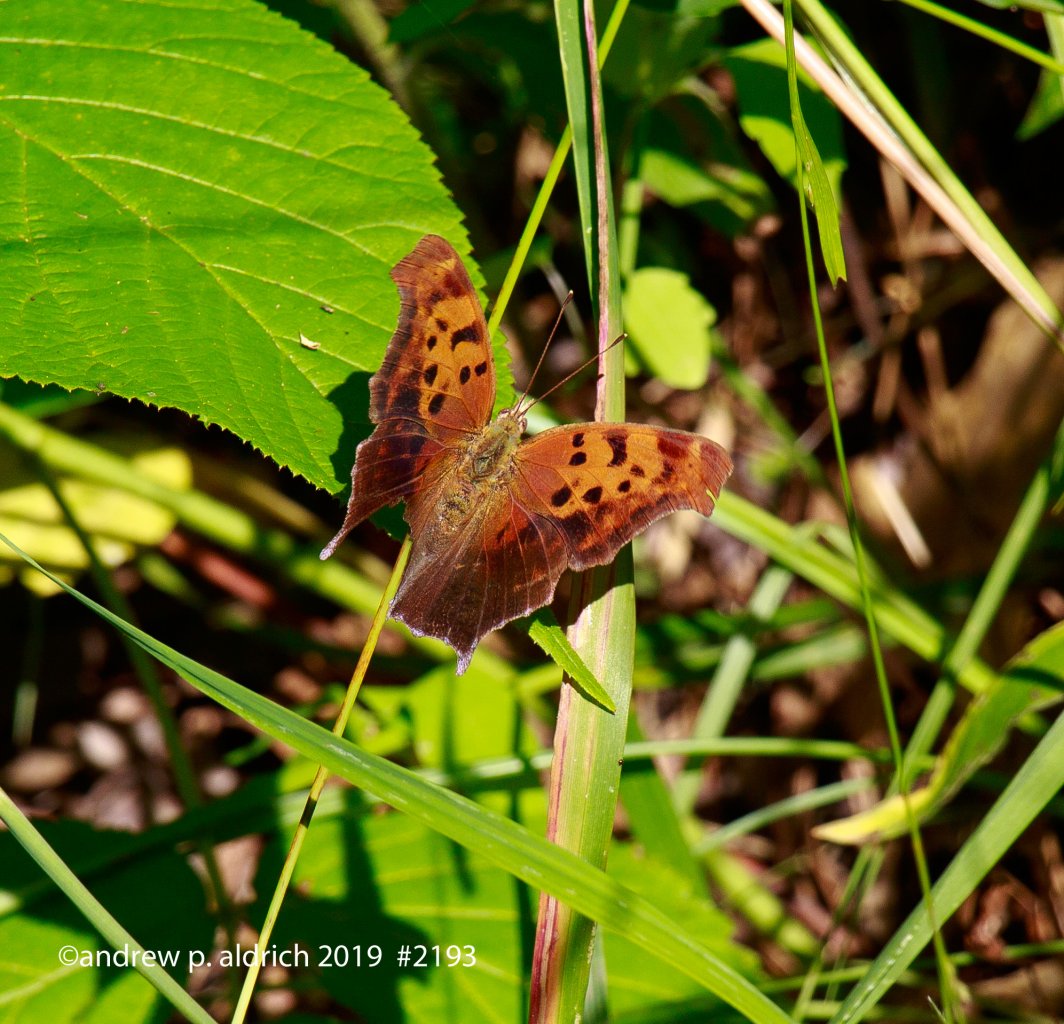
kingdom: Animalia
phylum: Arthropoda
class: Insecta
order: Lepidoptera
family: Nymphalidae
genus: Polygonia
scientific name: Polygonia interrogationis
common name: Question Mark
